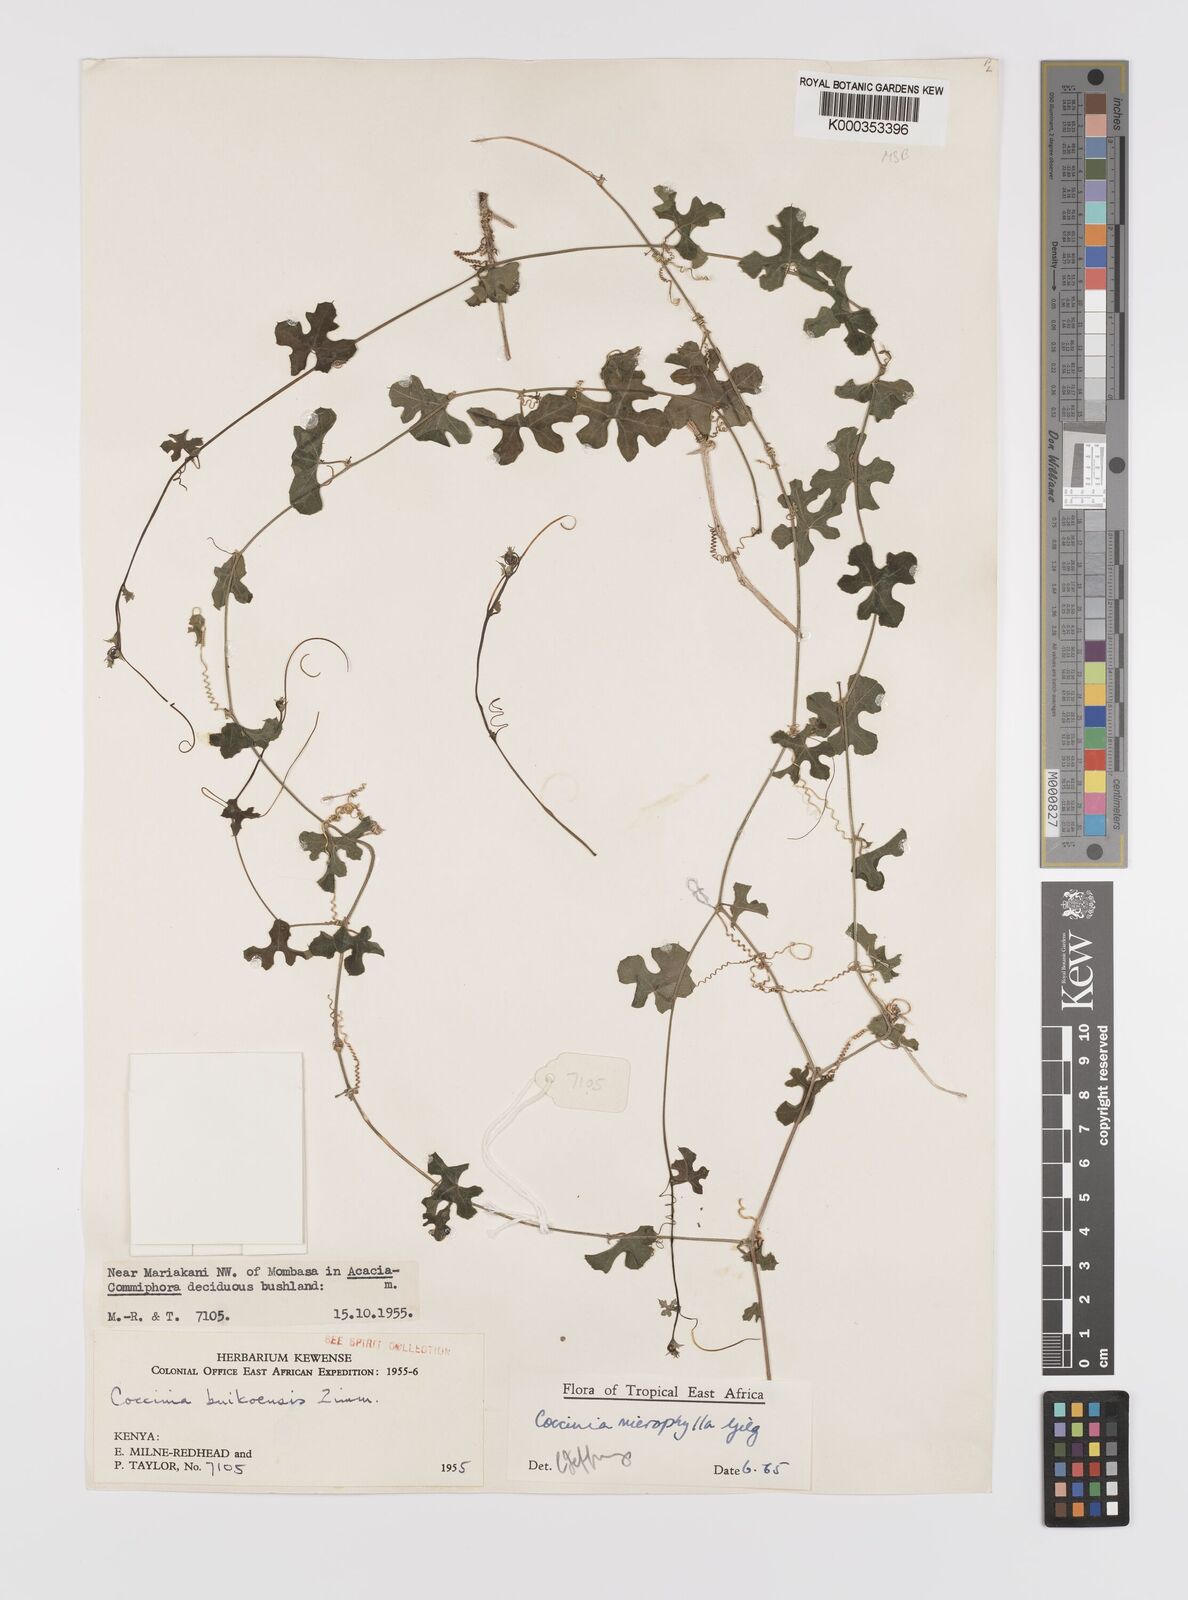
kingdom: Plantae
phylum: Tracheophyta
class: Magnoliopsida
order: Cucurbitales
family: Cucurbitaceae
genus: Coccinia
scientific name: Coccinia microphylla
